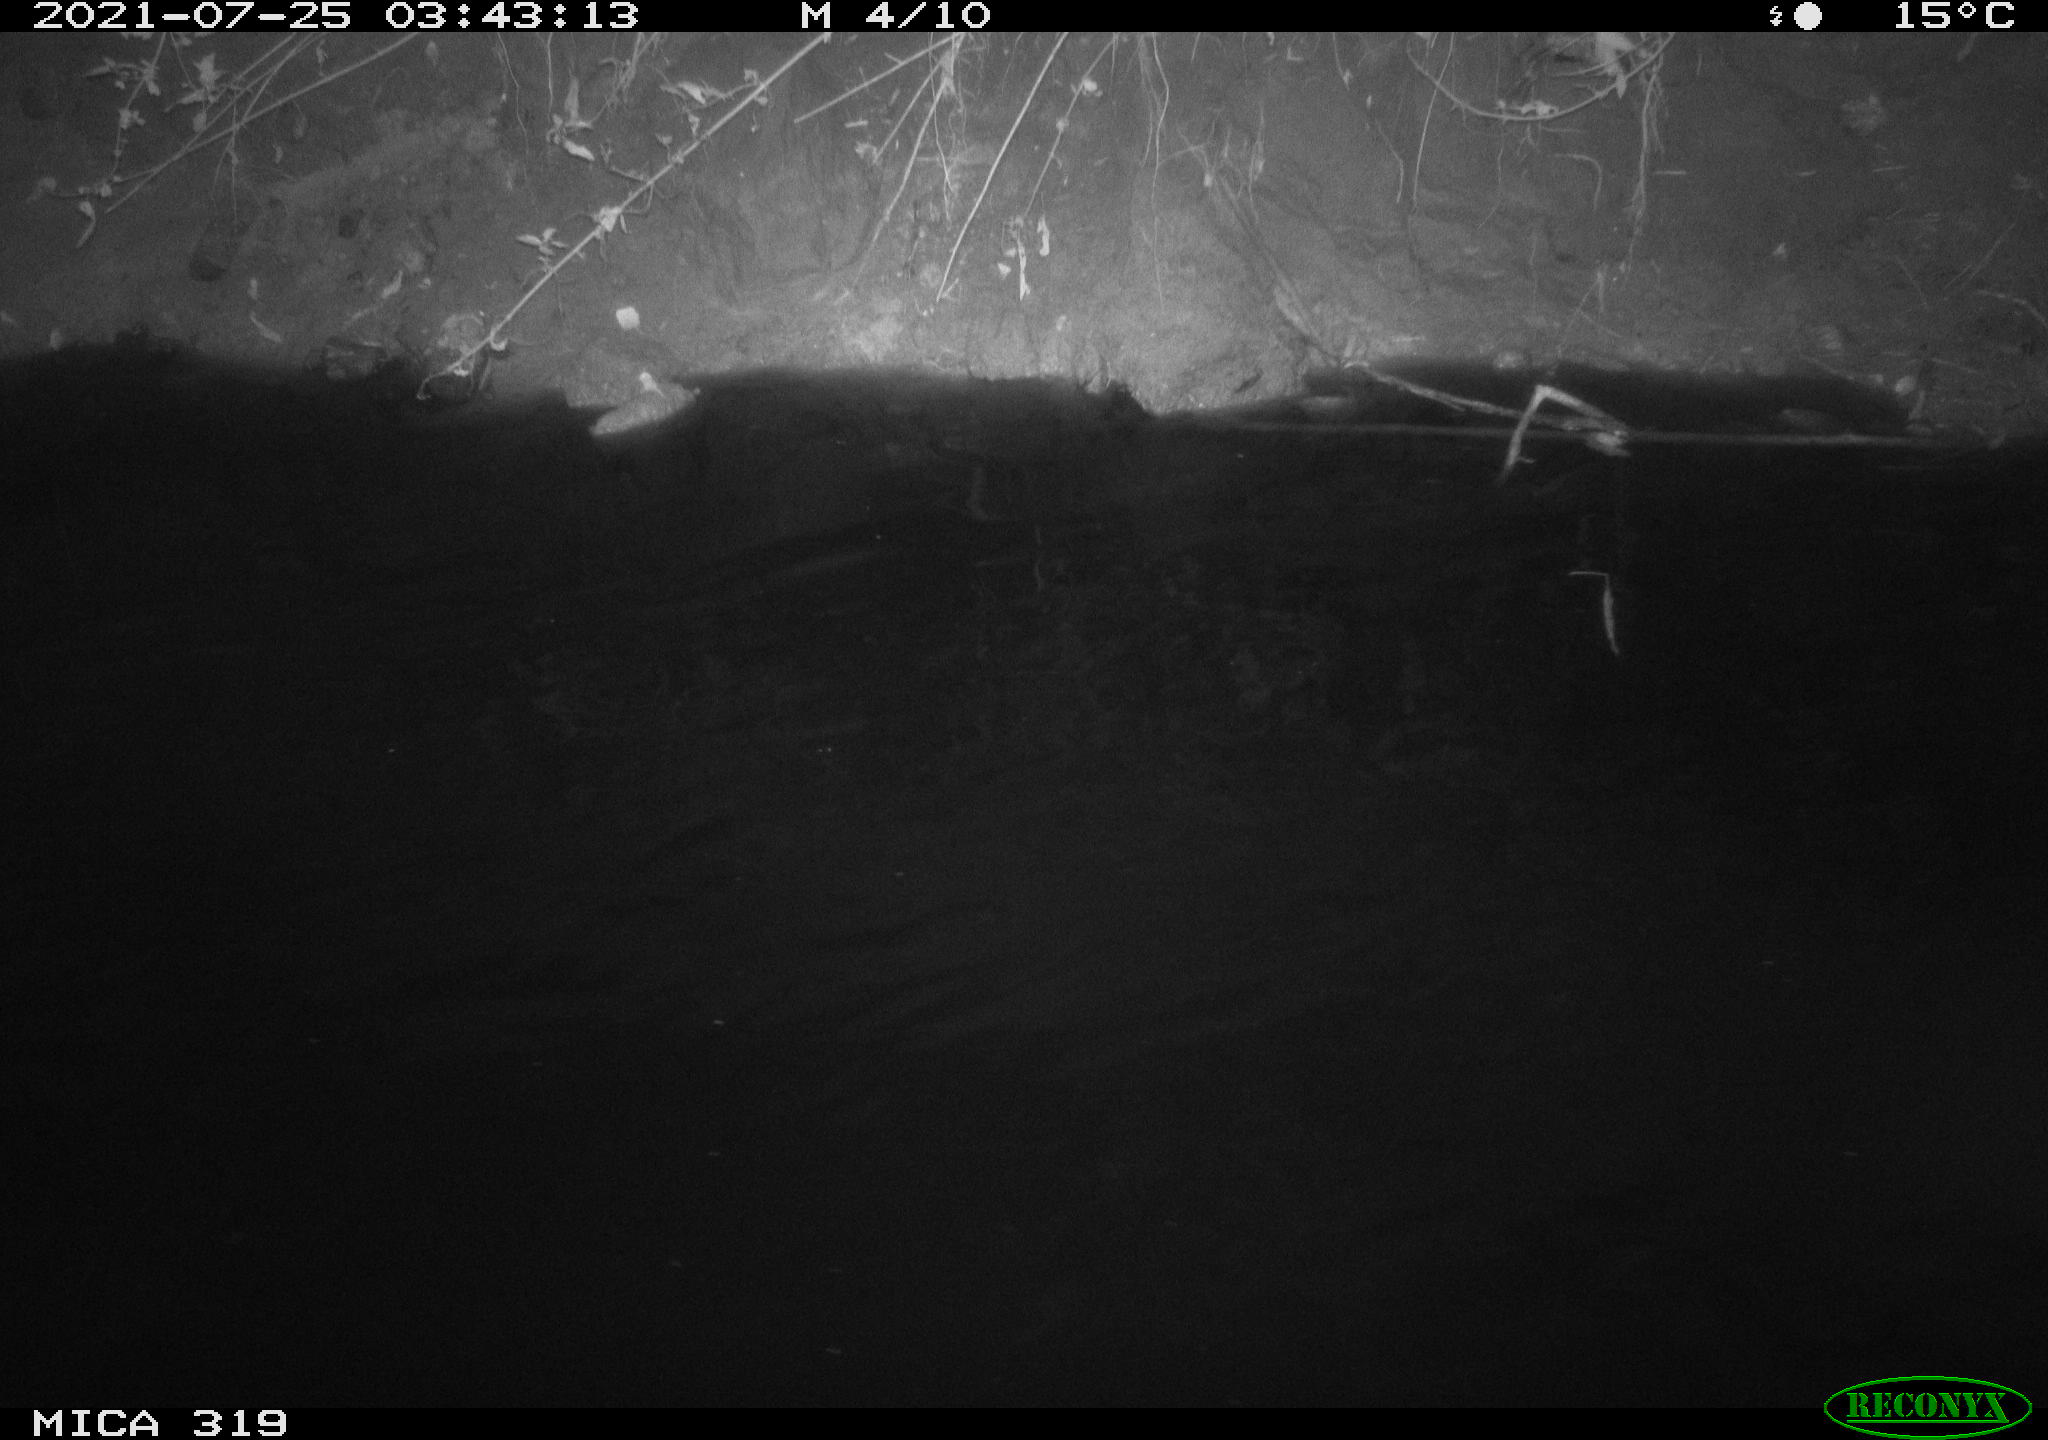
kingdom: Animalia
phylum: Chordata
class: Aves
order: Anseriformes
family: Anatidae
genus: Anas
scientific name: Anas platyrhynchos
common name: Mallard
